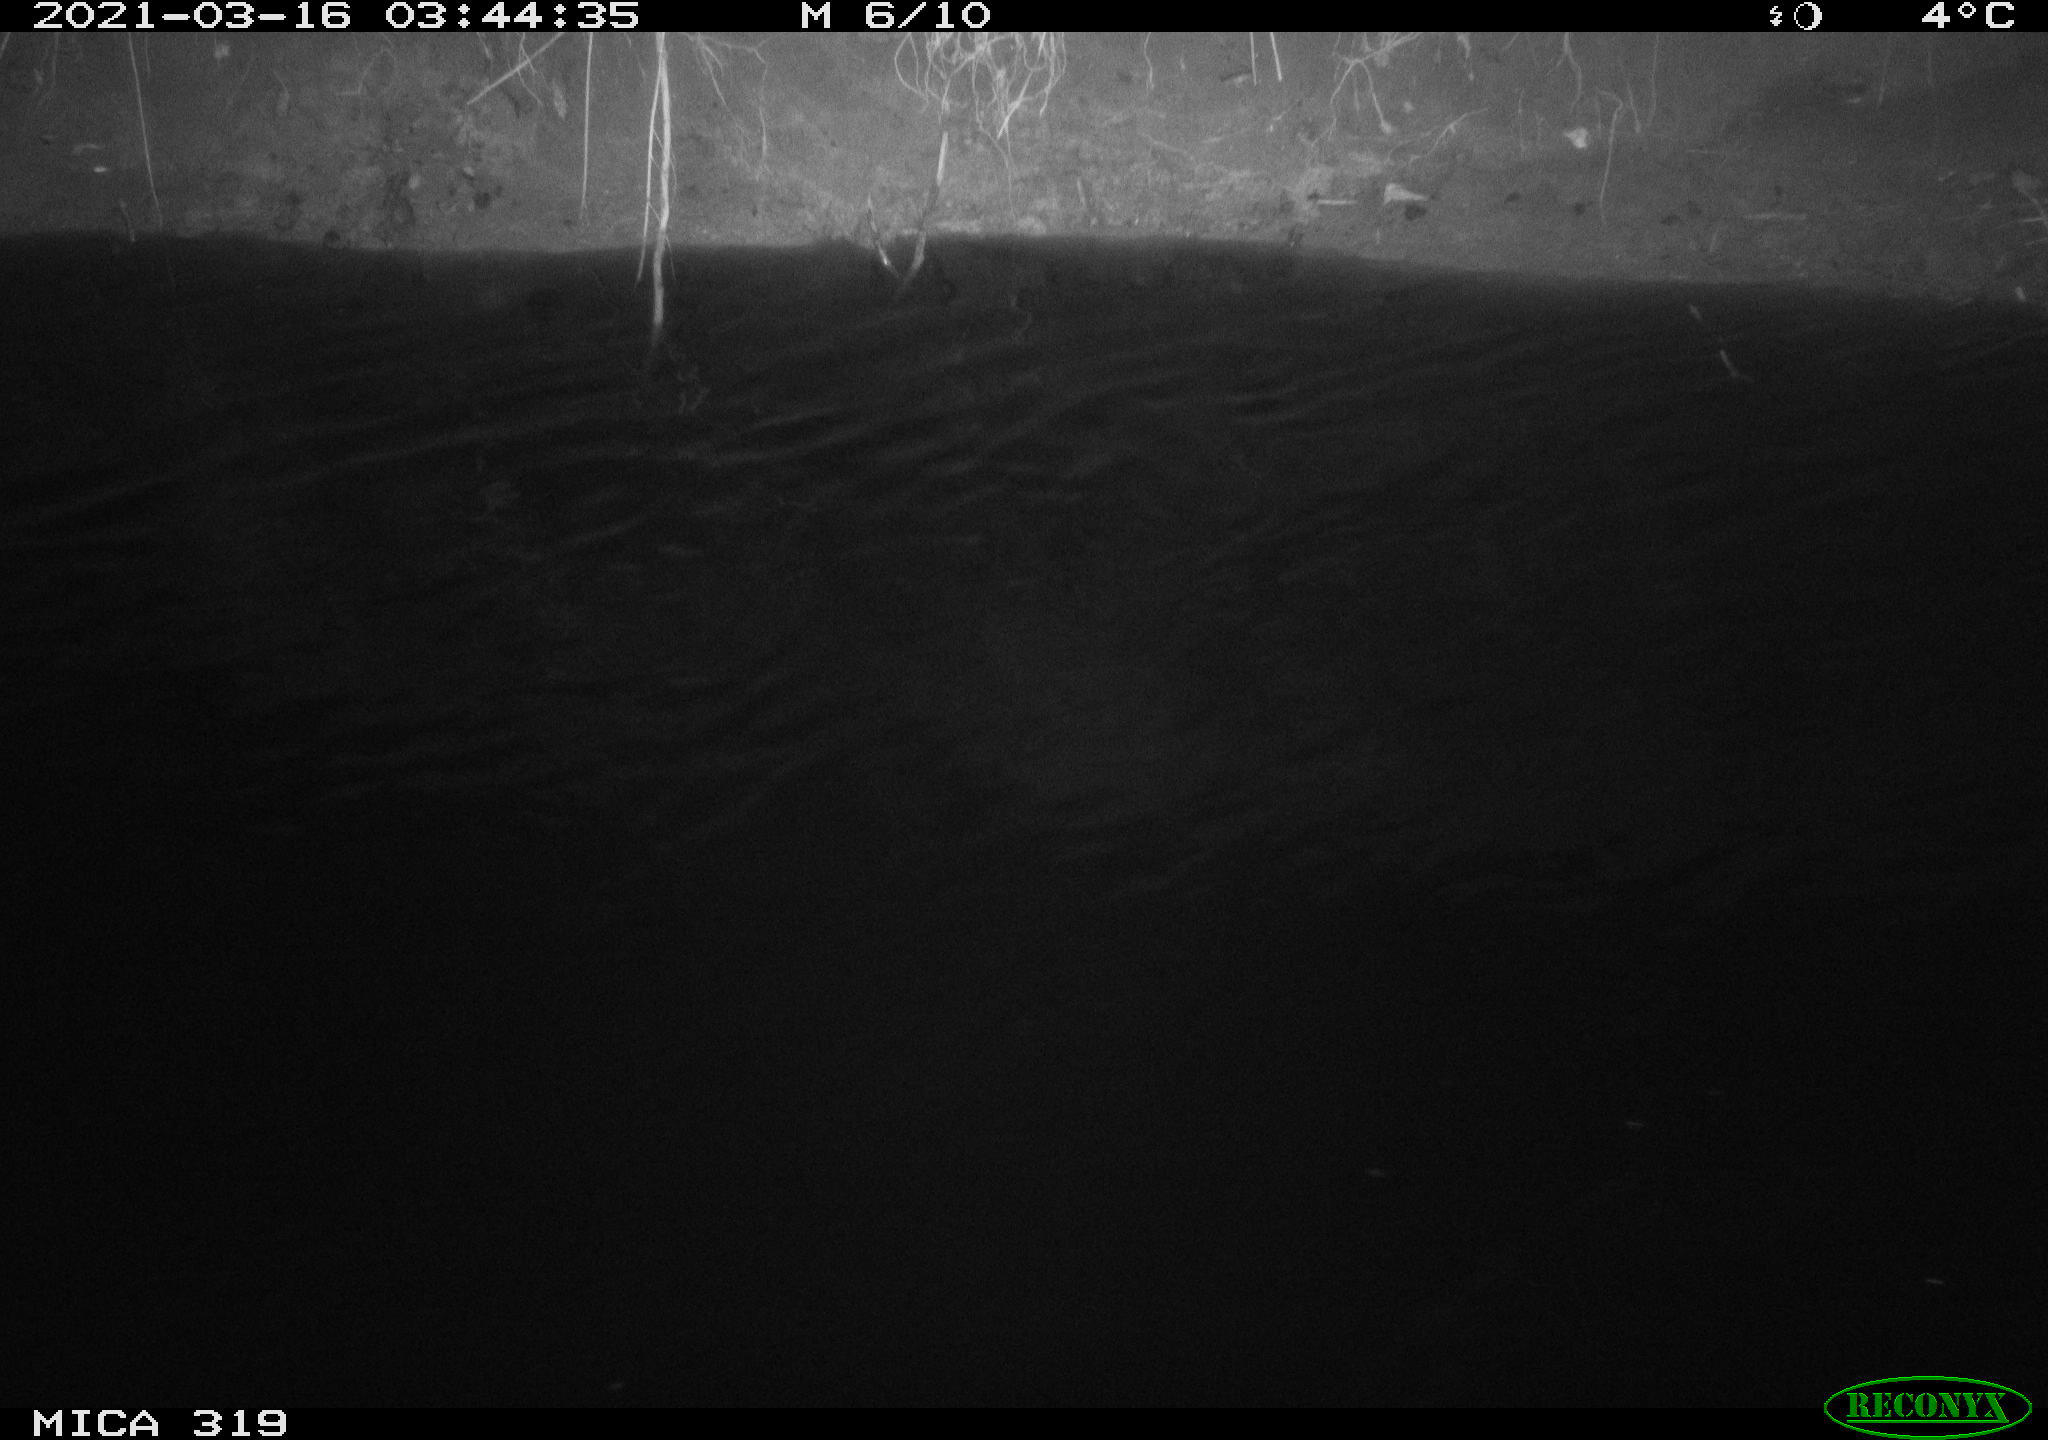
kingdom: Animalia
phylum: Chordata
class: Aves
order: Anseriformes
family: Anatidae
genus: Anas
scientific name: Anas platyrhynchos
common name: Mallard
